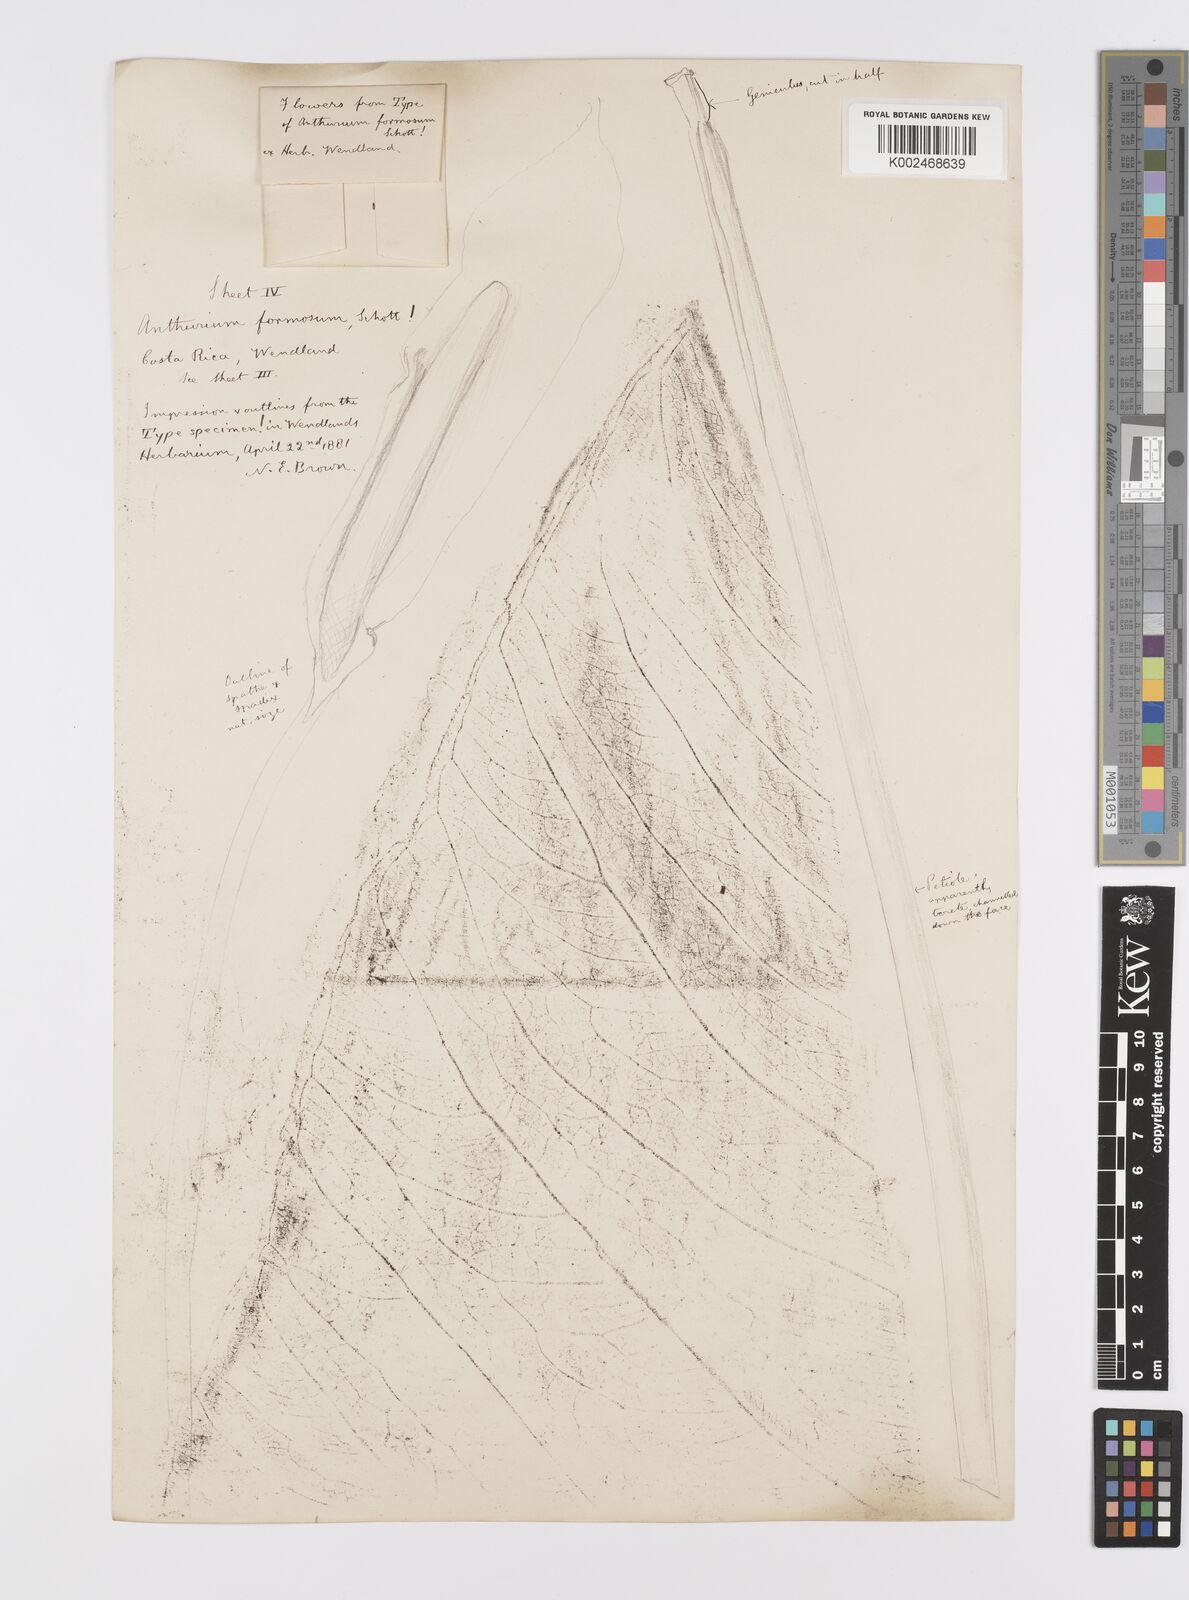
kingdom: Plantae
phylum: Tracheophyta
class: Liliopsida
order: Alismatales
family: Araceae
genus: Anthurium
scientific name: Anthurium formosum
